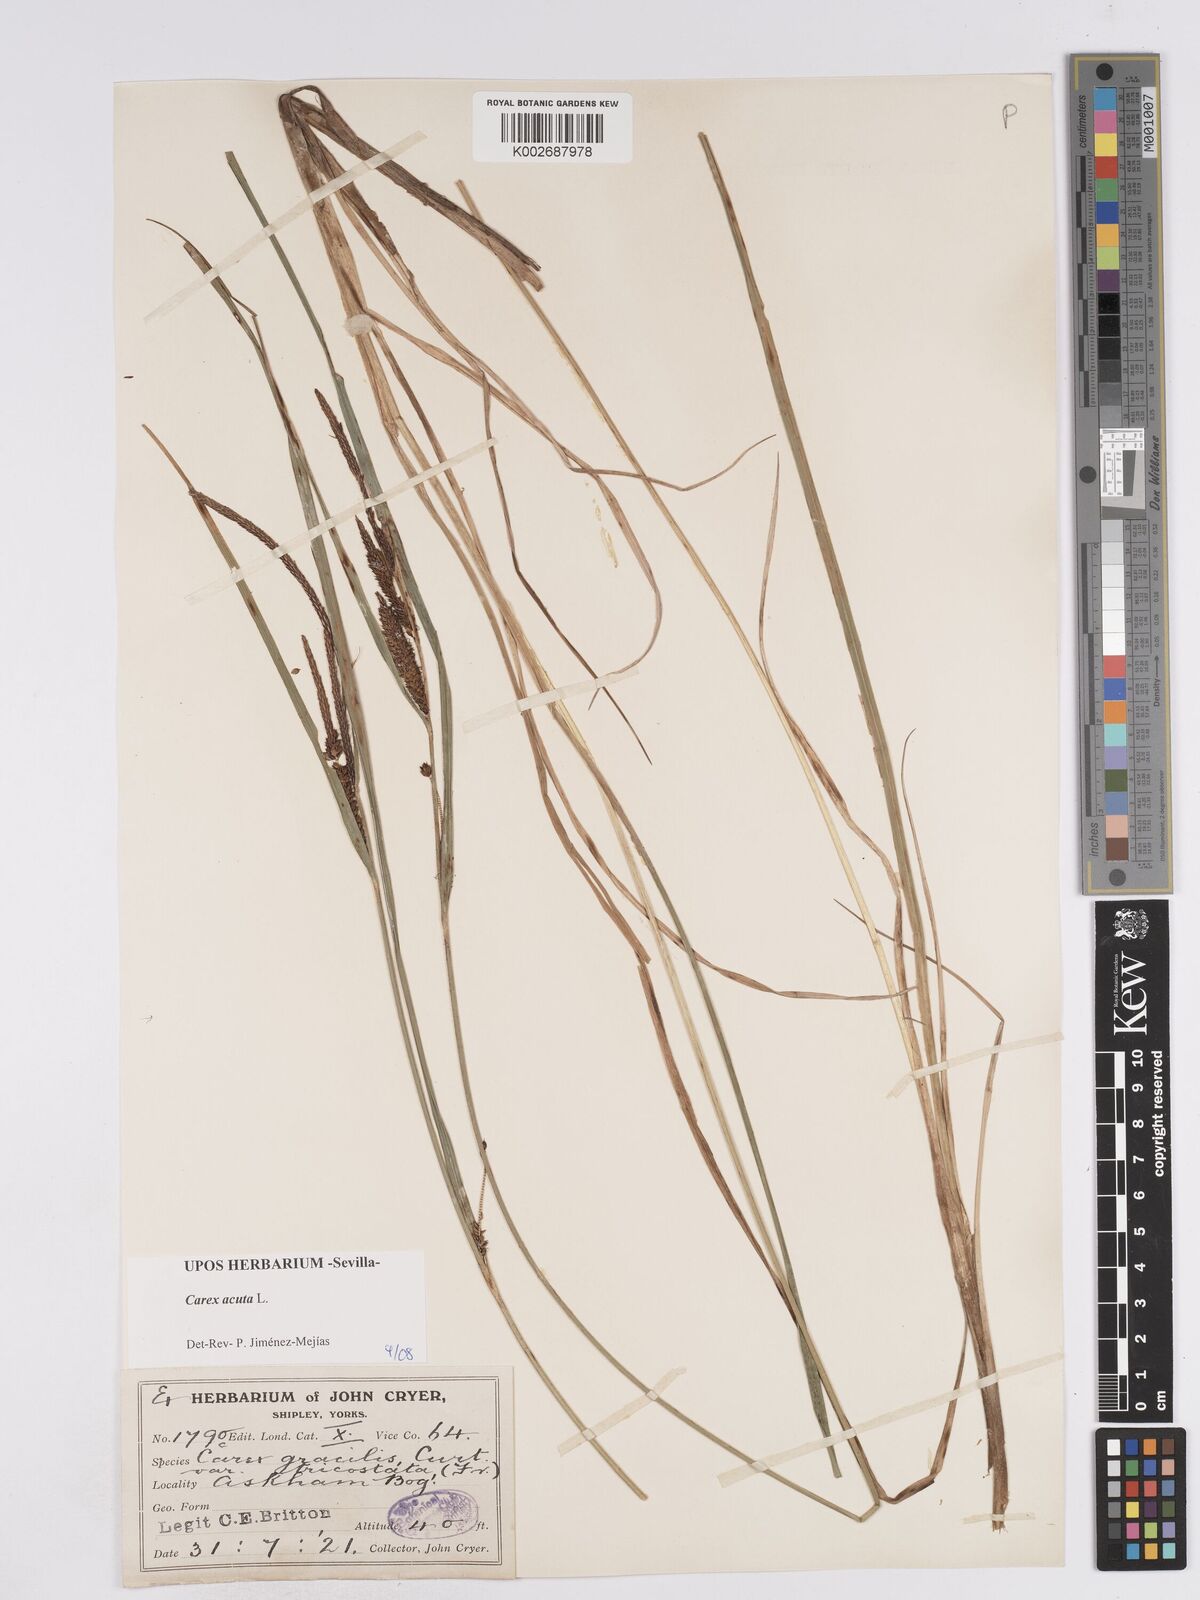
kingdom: Plantae
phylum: Tracheophyta
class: Liliopsida
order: Poales
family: Cyperaceae
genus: Carex
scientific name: Carex acuta
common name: Slender tufted-sedge
